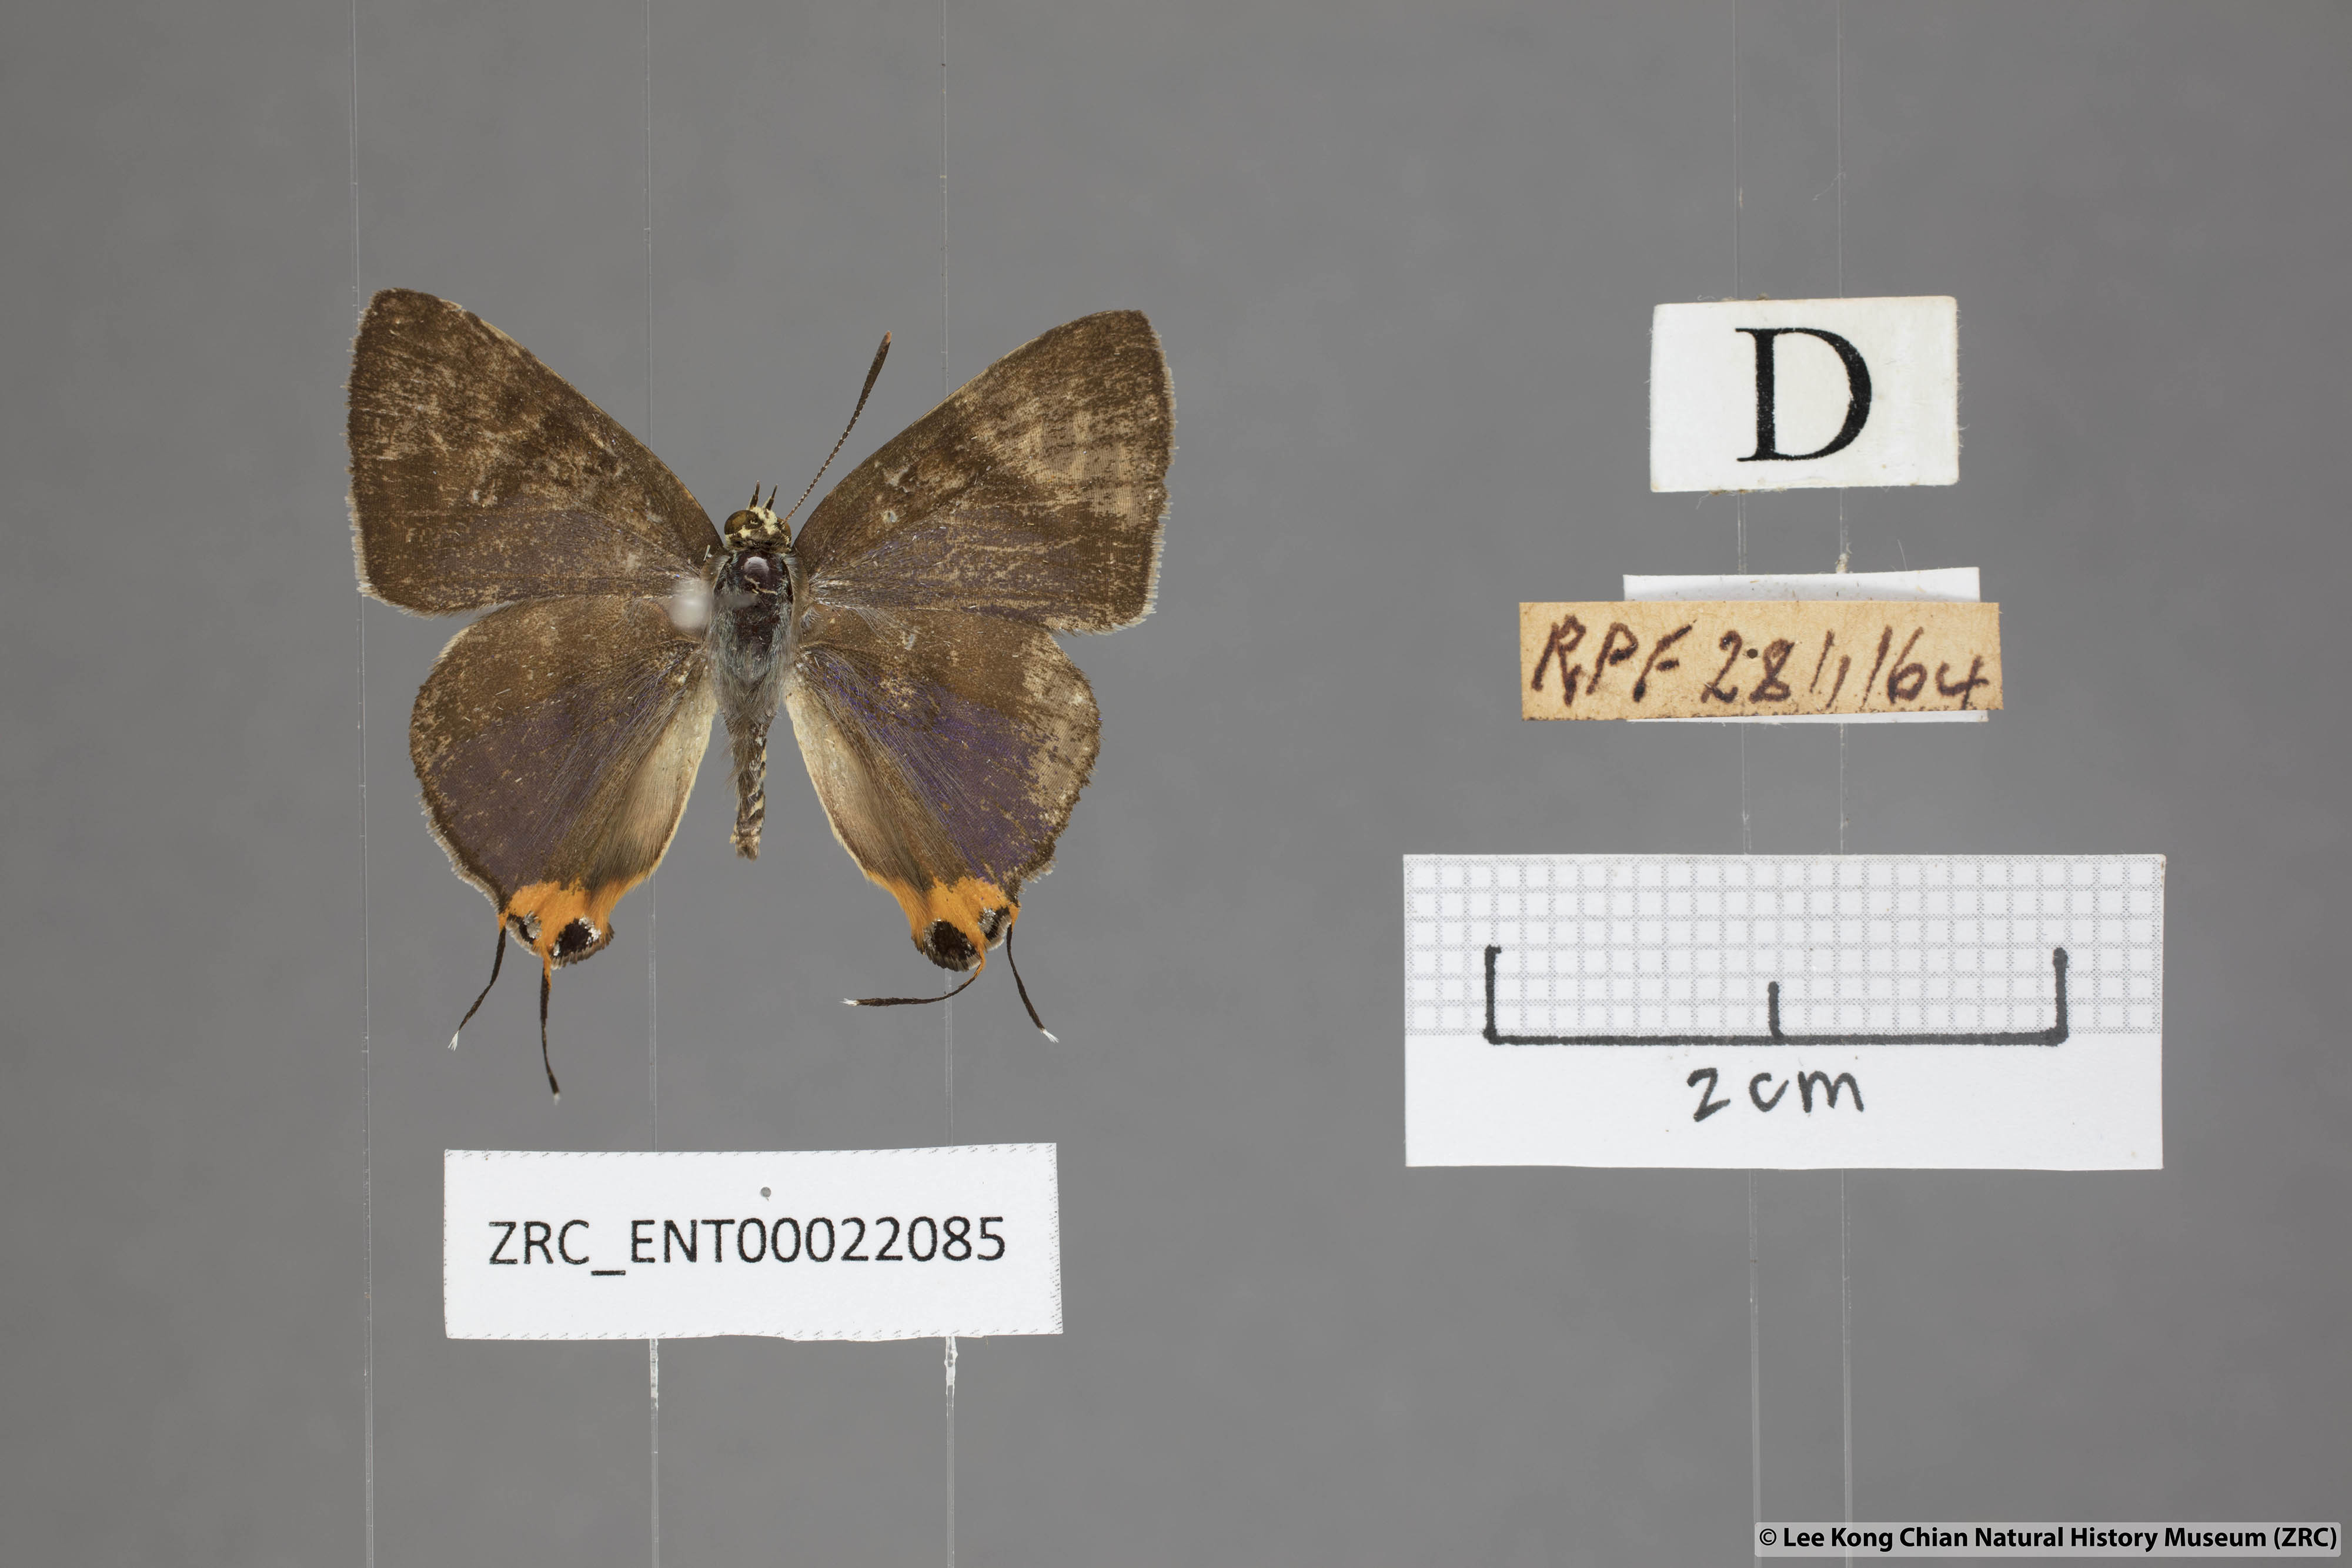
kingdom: Animalia
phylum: Arthropoda
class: Insecta
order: Lepidoptera
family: Lycaenidae
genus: Spindasis
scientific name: Spindasis syama
